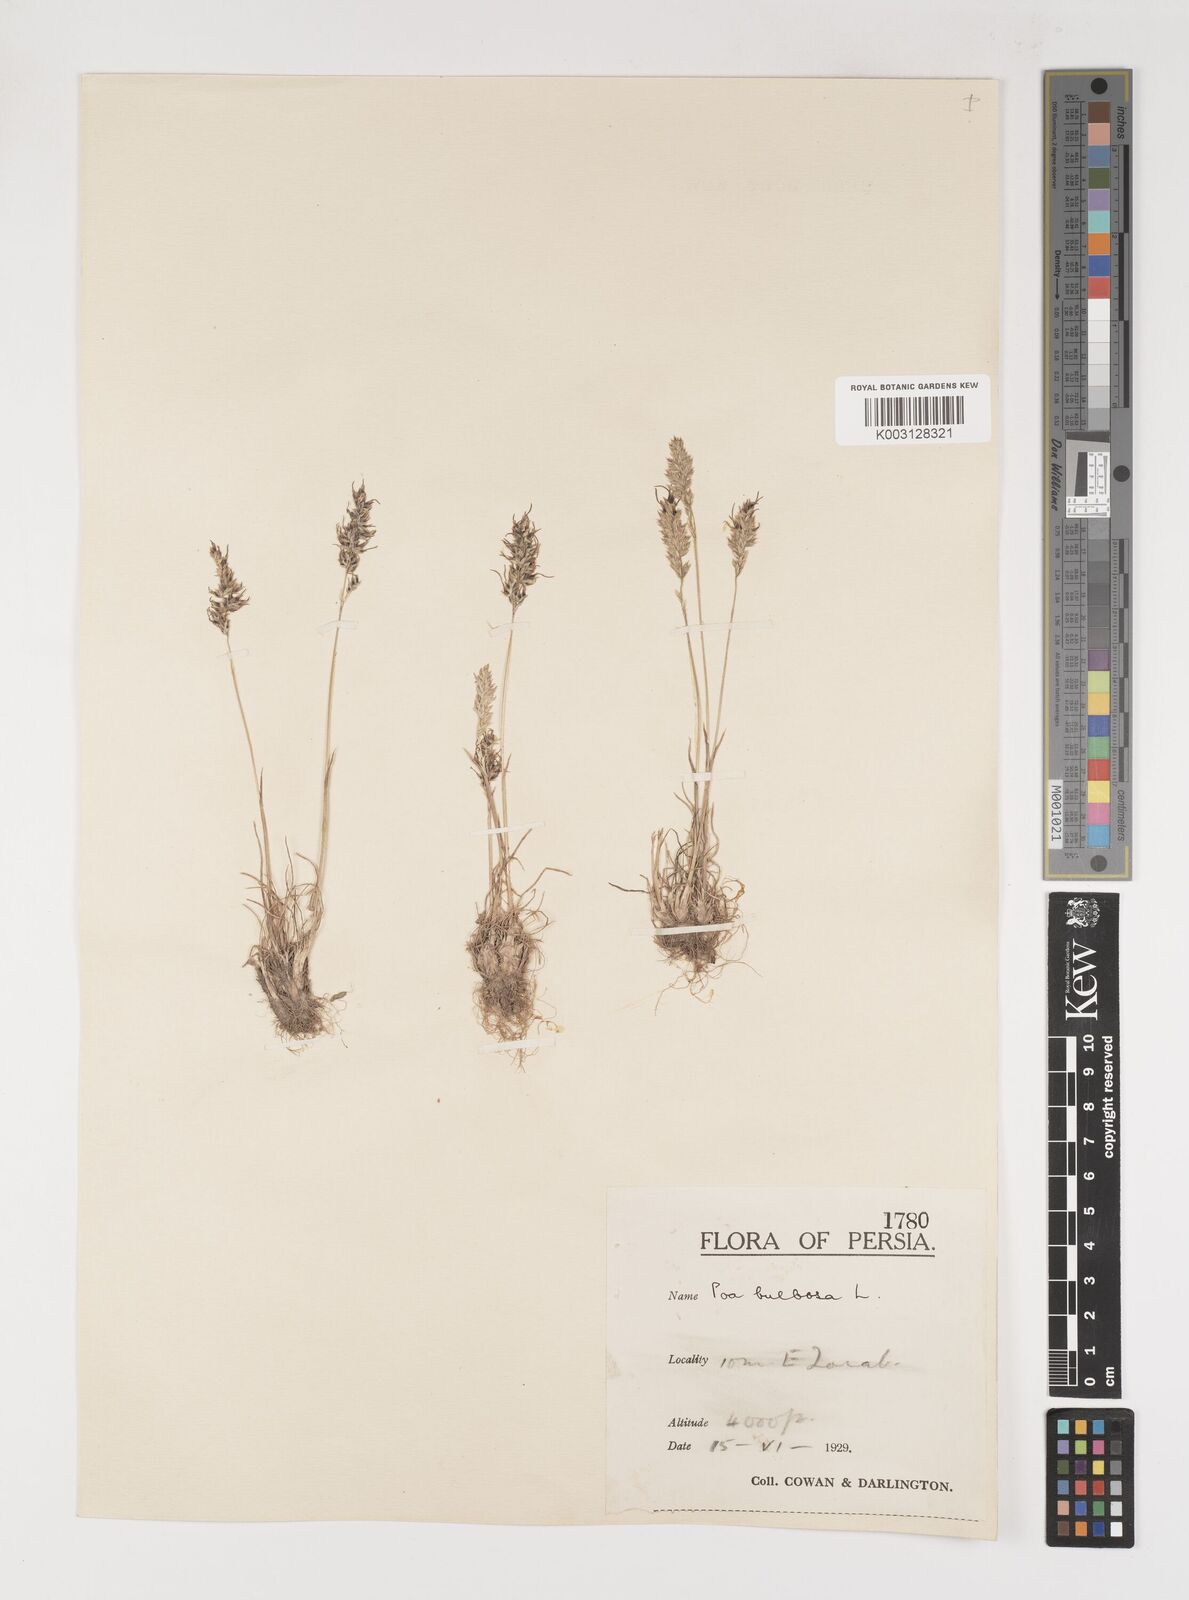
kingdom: Plantae
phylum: Tracheophyta
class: Liliopsida
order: Poales
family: Poaceae
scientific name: Poaceae
